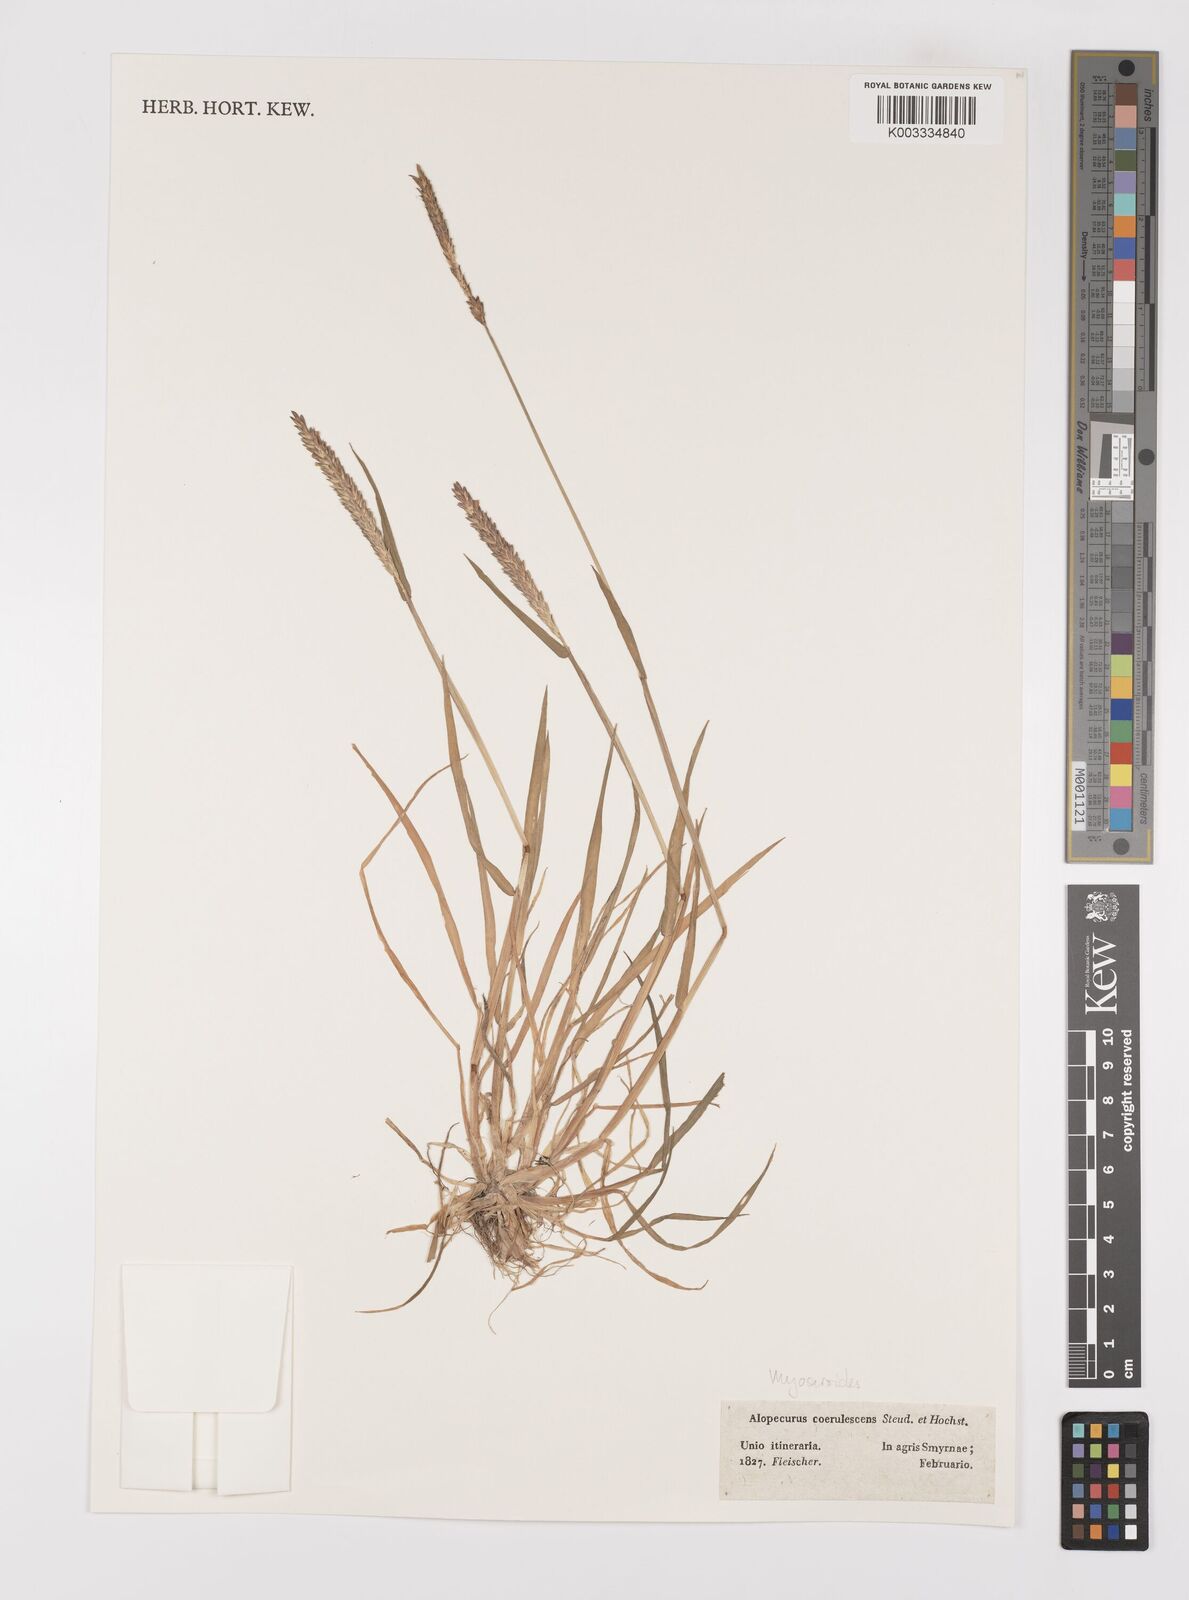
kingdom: Plantae
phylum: Tracheophyta
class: Liliopsida
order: Poales
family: Poaceae
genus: Alopecurus
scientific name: Alopecurus myosuroides
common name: Black-grass
